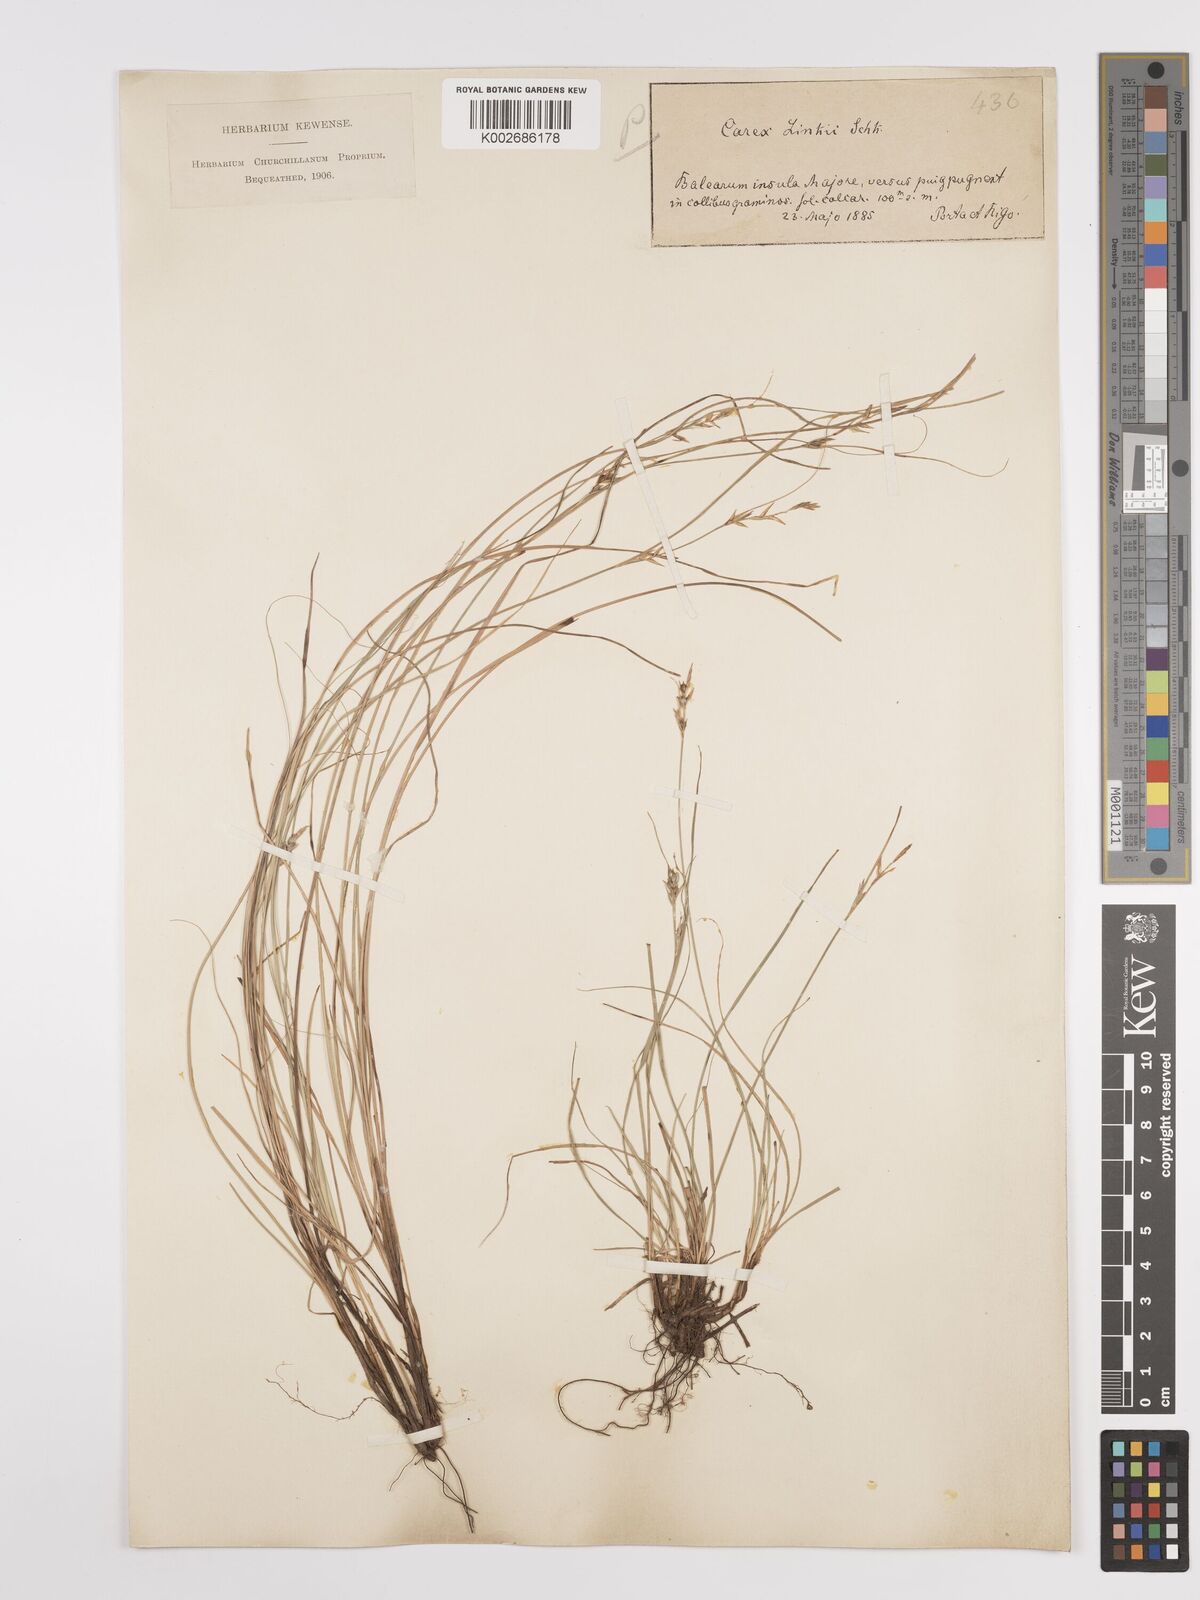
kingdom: Plantae
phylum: Tracheophyta
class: Liliopsida
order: Poales
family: Cyperaceae
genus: Carex
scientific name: Carex distachya
